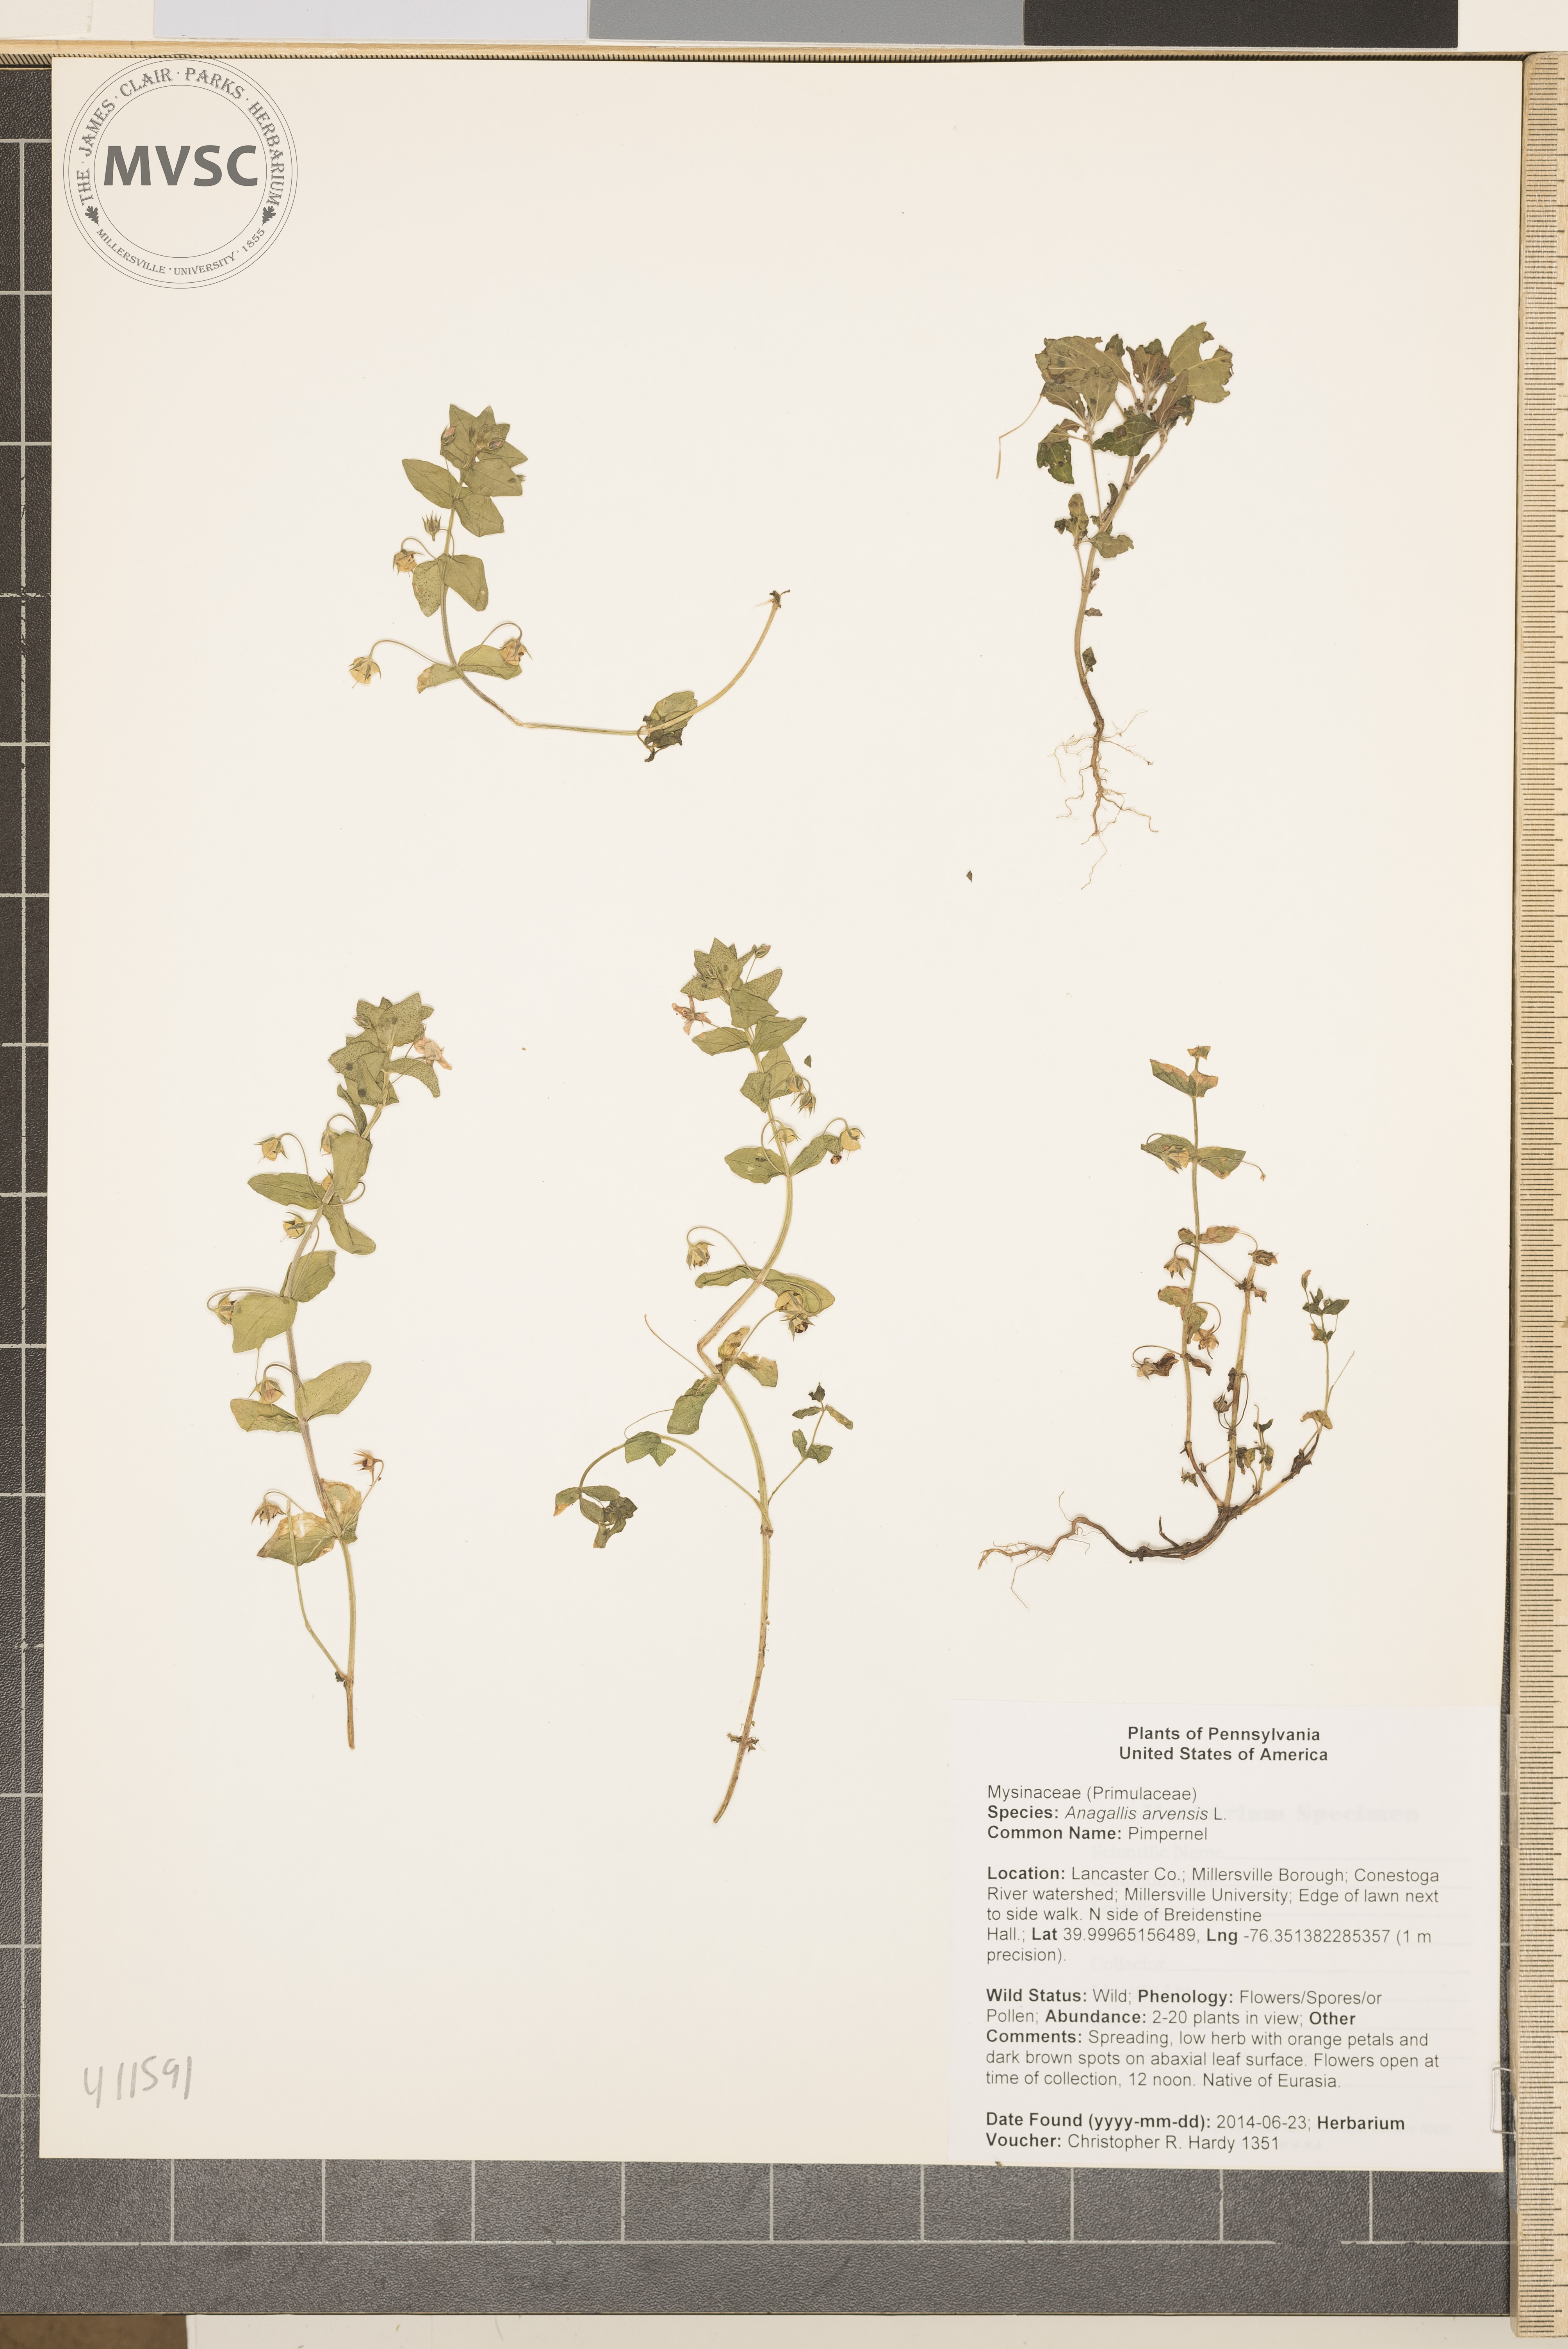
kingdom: Plantae
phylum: Tracheophyta
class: Magnoliopsida
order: Ericales
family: Primulaceae
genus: Lysimachia
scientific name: Lysimachia arvensis
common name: Pimpernel
